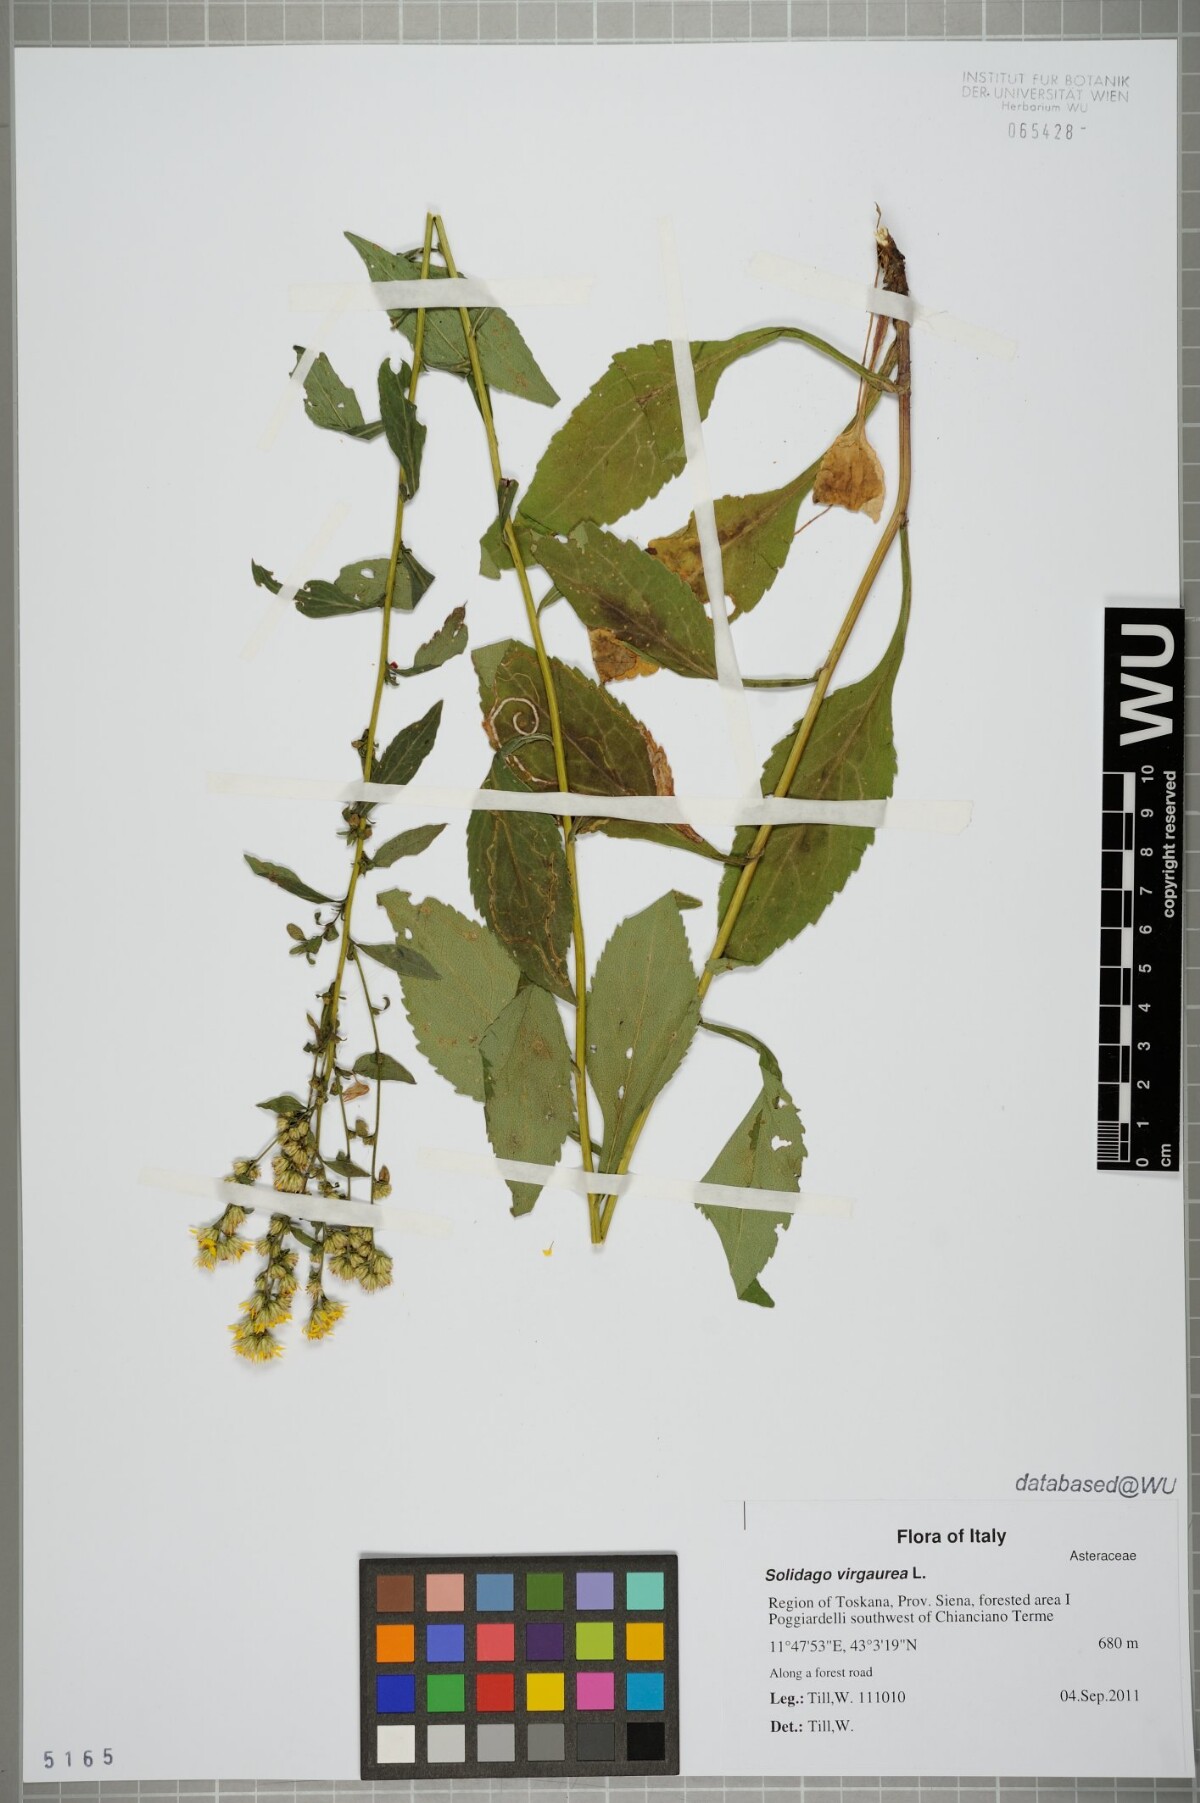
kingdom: Plantae
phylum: Tracheophyta
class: Magnoliopsida
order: Asterales
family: Asteraceae
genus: Solidago
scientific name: Solidago virgaurea
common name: Goldenrod
